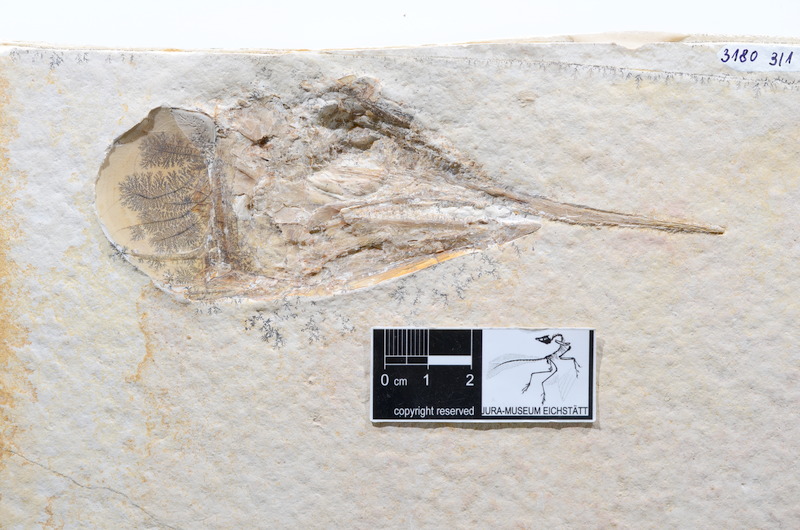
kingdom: Animalia
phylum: Chordata
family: Aspidorhynchidae
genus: Aspidorhynchus
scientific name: Aspidorhynchus acutirostris
